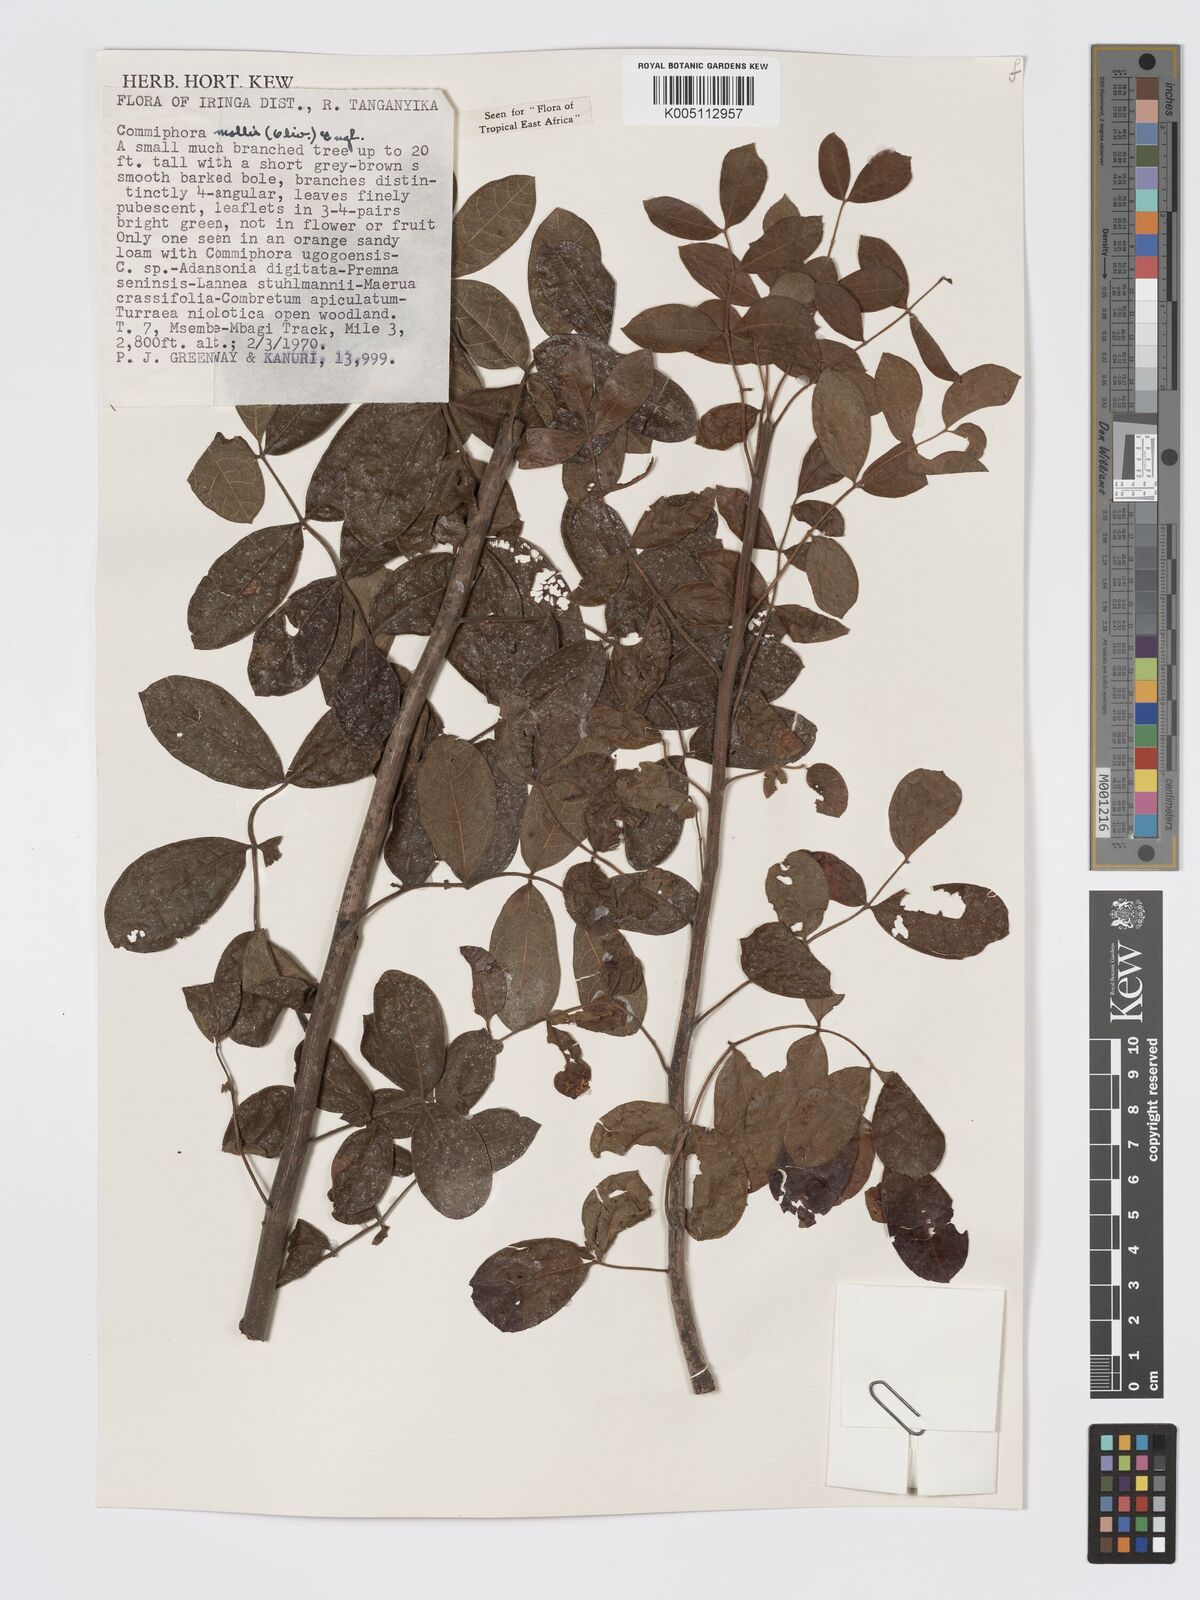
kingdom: Plantae
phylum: Tracheophyta
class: Magnoliopsida
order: Sapindales
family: Burseraceae
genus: Commiphora
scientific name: Commiphora
